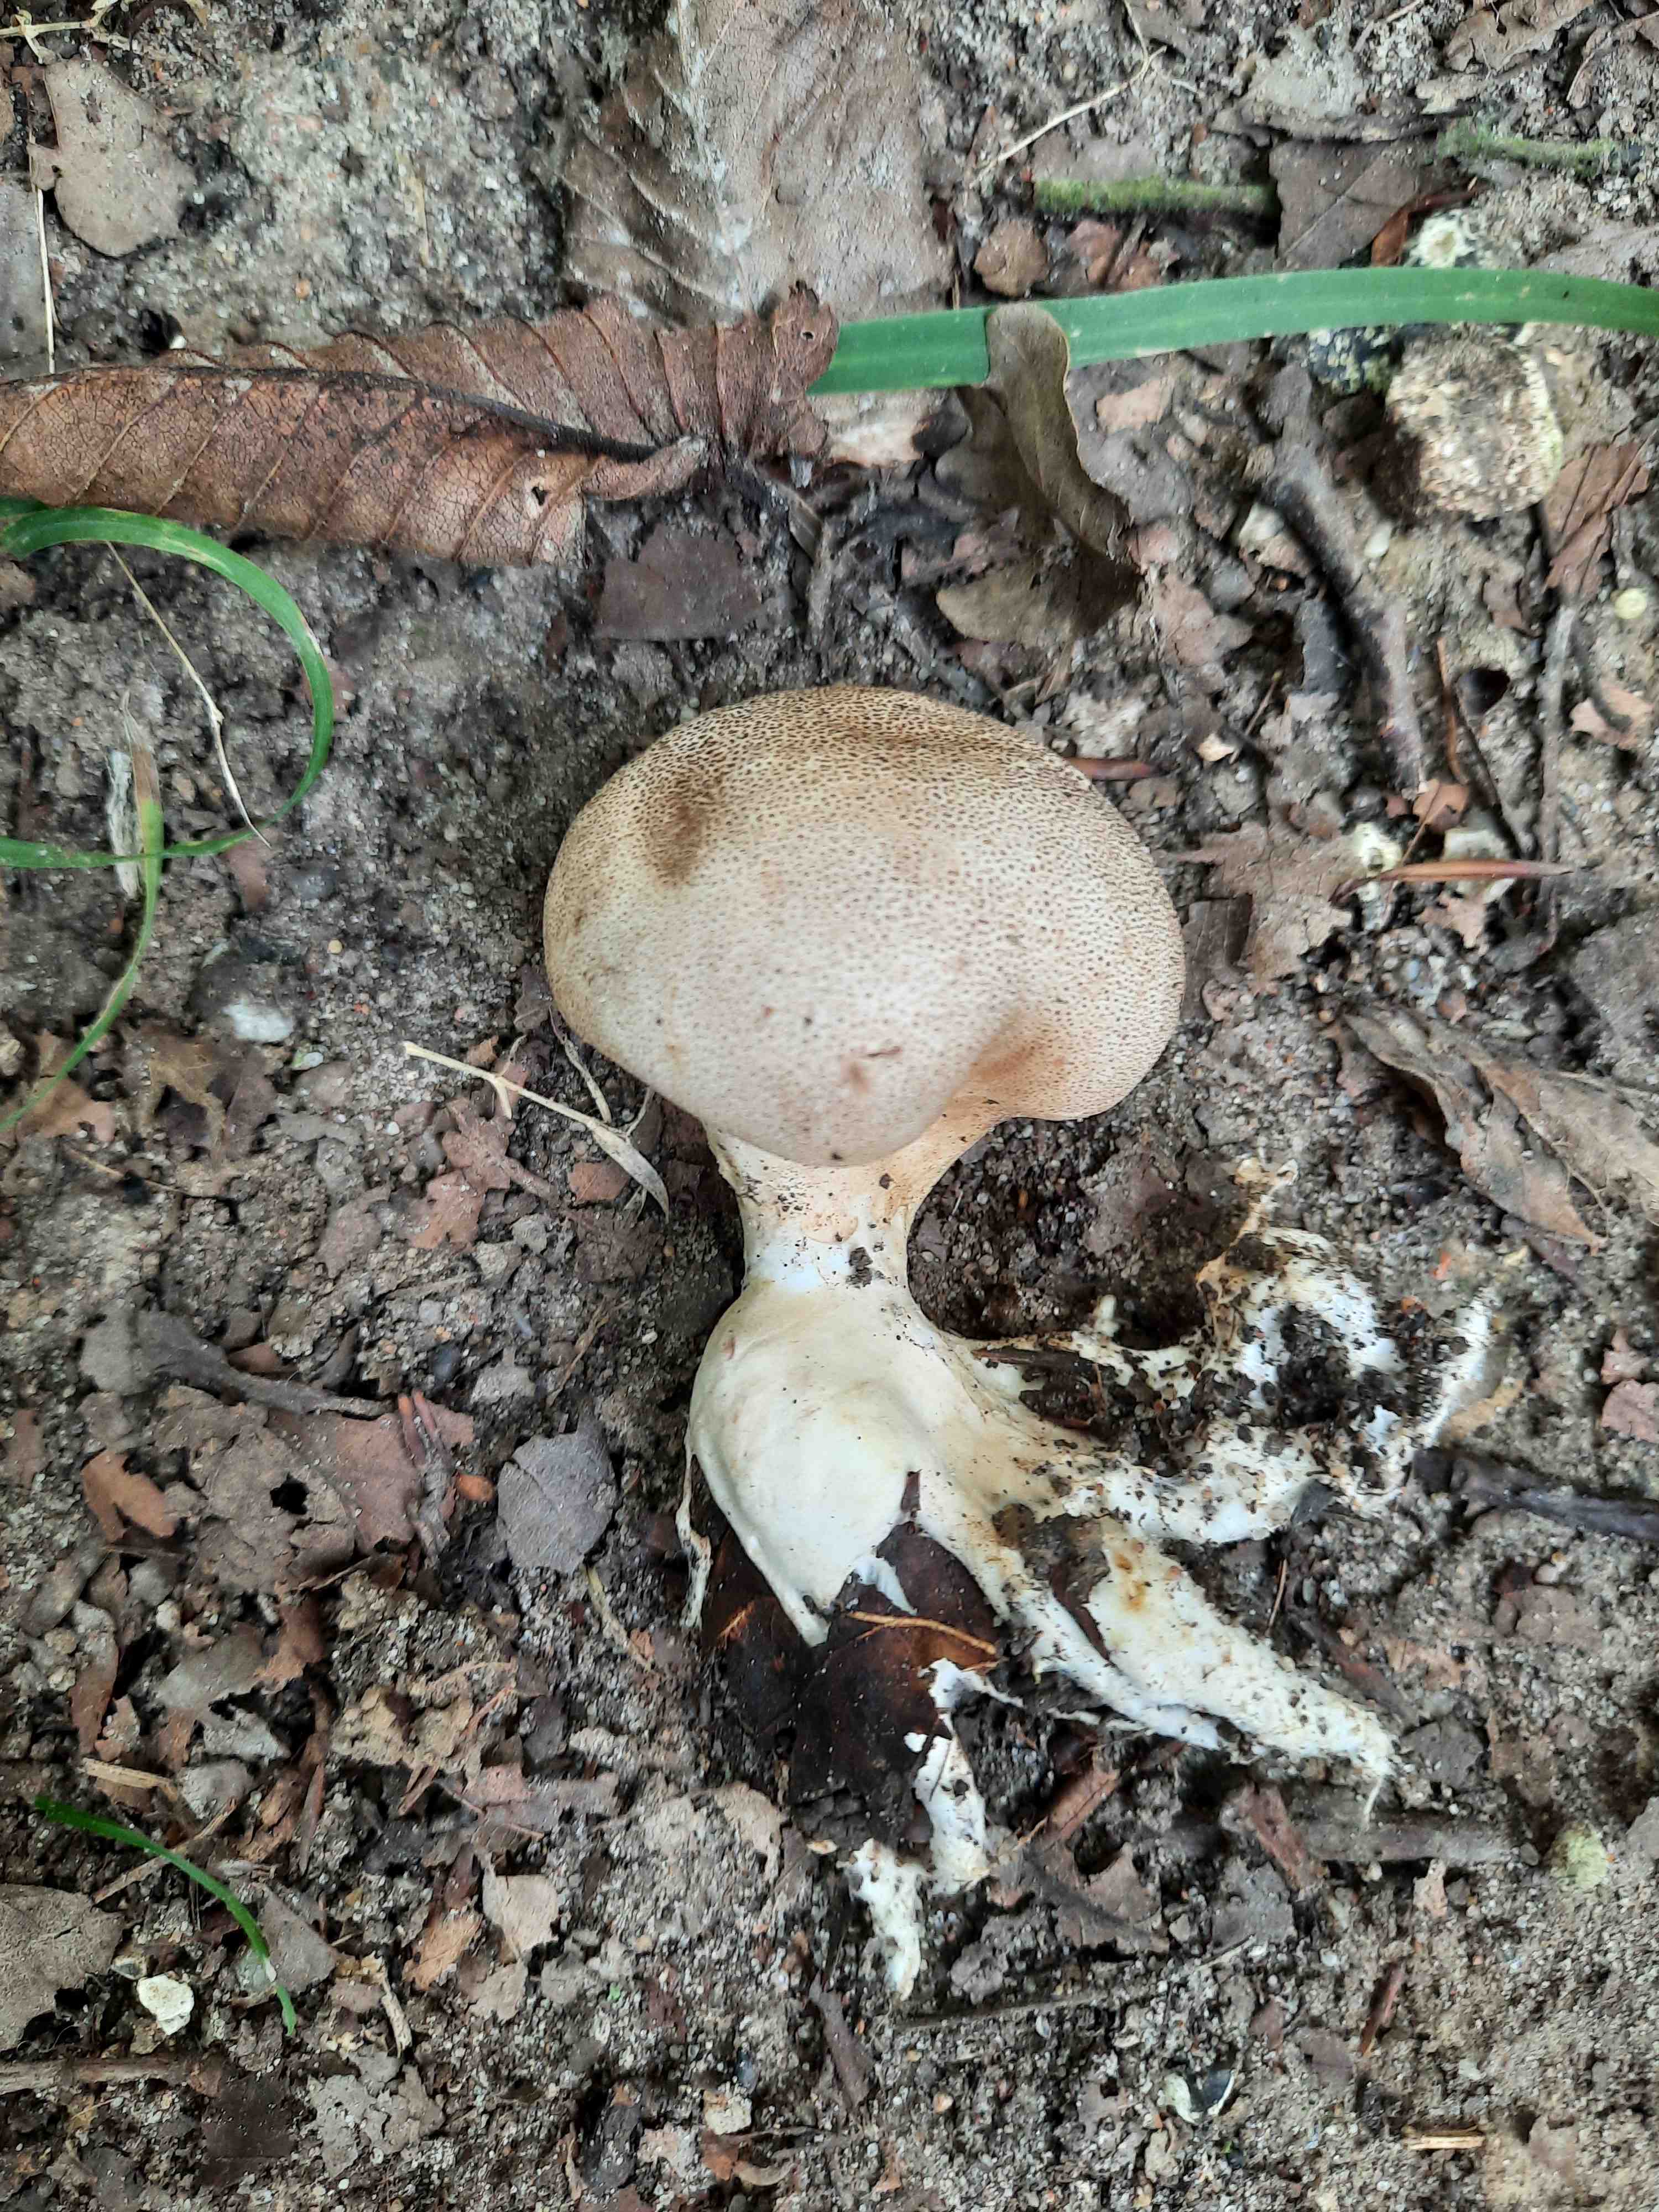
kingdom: Fungi
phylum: Basidiomycota
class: Agaricomycetes
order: Boletales
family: Sclerodermataceae
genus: Scleroderma
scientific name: Scleroderma verrucosum
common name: stilket bruskbold
